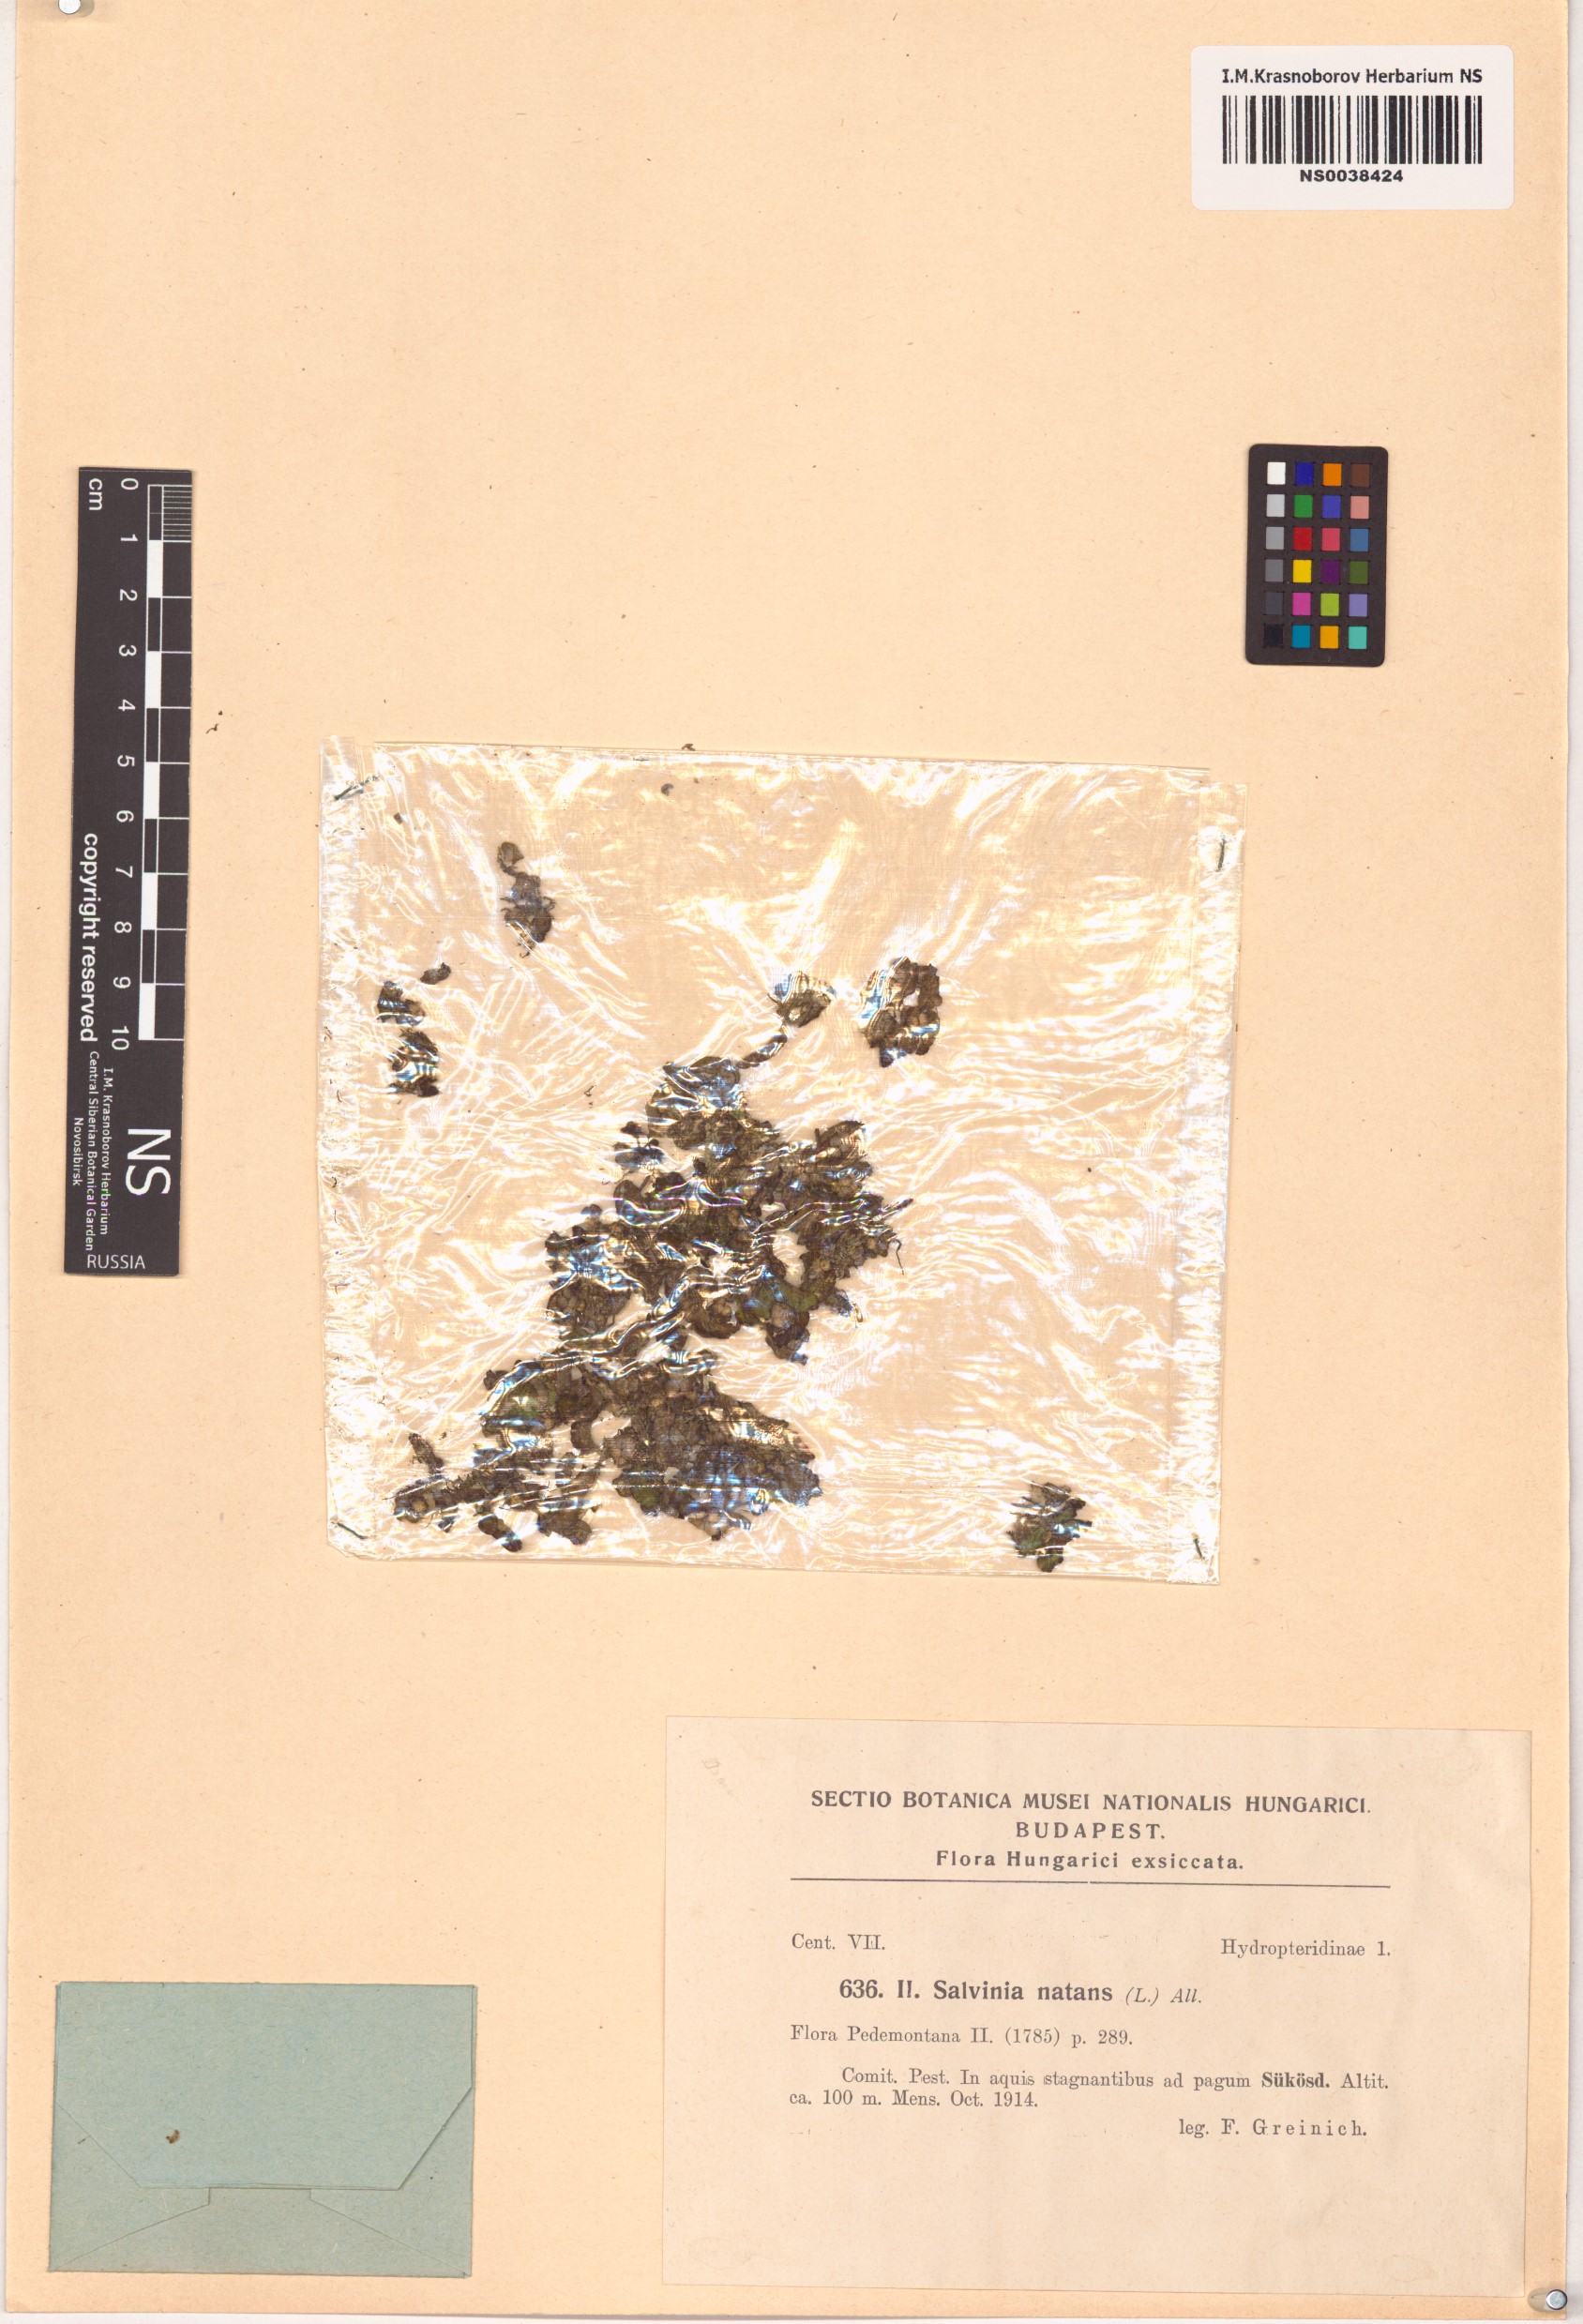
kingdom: Plantae
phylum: Tracheophyta
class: Polypodiopsida
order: Salviniales
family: Salviniaceae
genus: Salvinia
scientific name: Salvinia natans
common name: Floating fern
